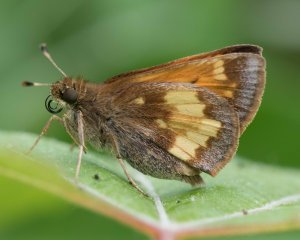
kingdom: Animalia
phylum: Arthropoda
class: Insecta
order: Lepidoptera
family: Hesperiidae
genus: Lon
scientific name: Lon hobomok
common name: Hobomok Skipper
